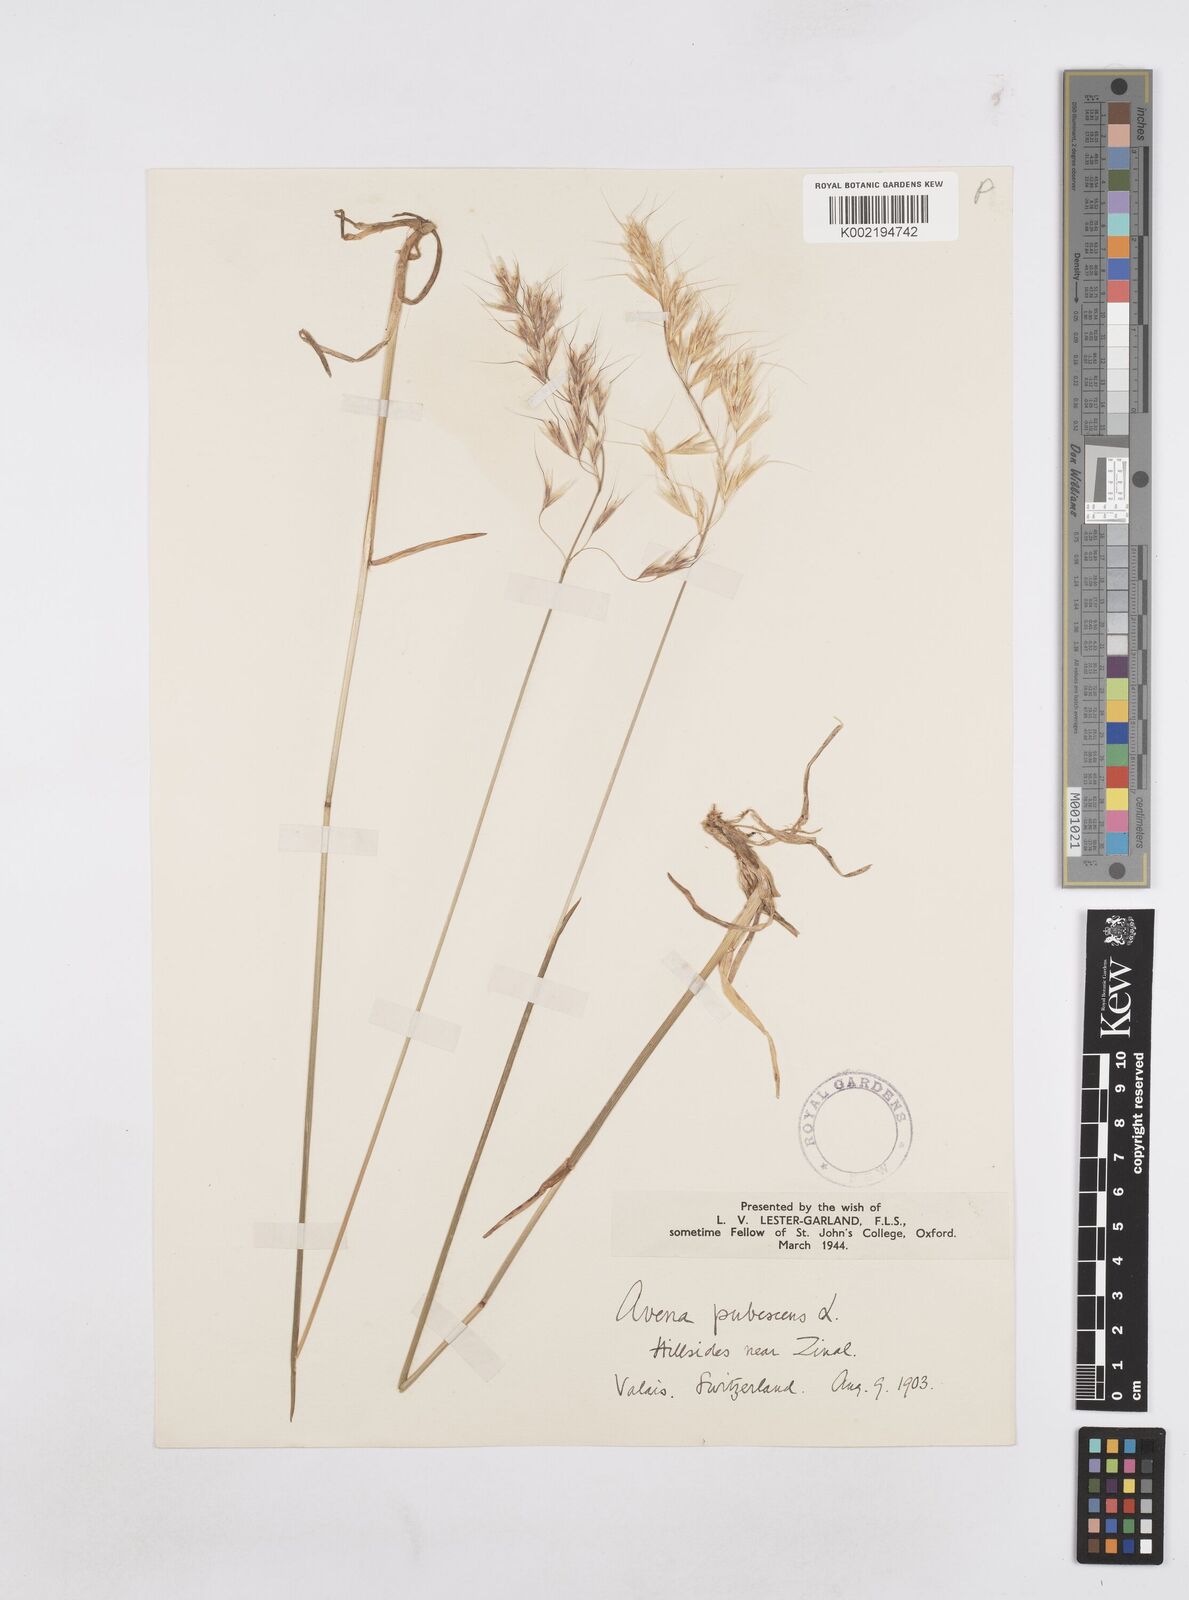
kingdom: Plantae
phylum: Tracheophyta
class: Liliopsida
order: Poales
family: Poaceae
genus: Avenula
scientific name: Avenula pubescens
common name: Downy alpine oatgrass
